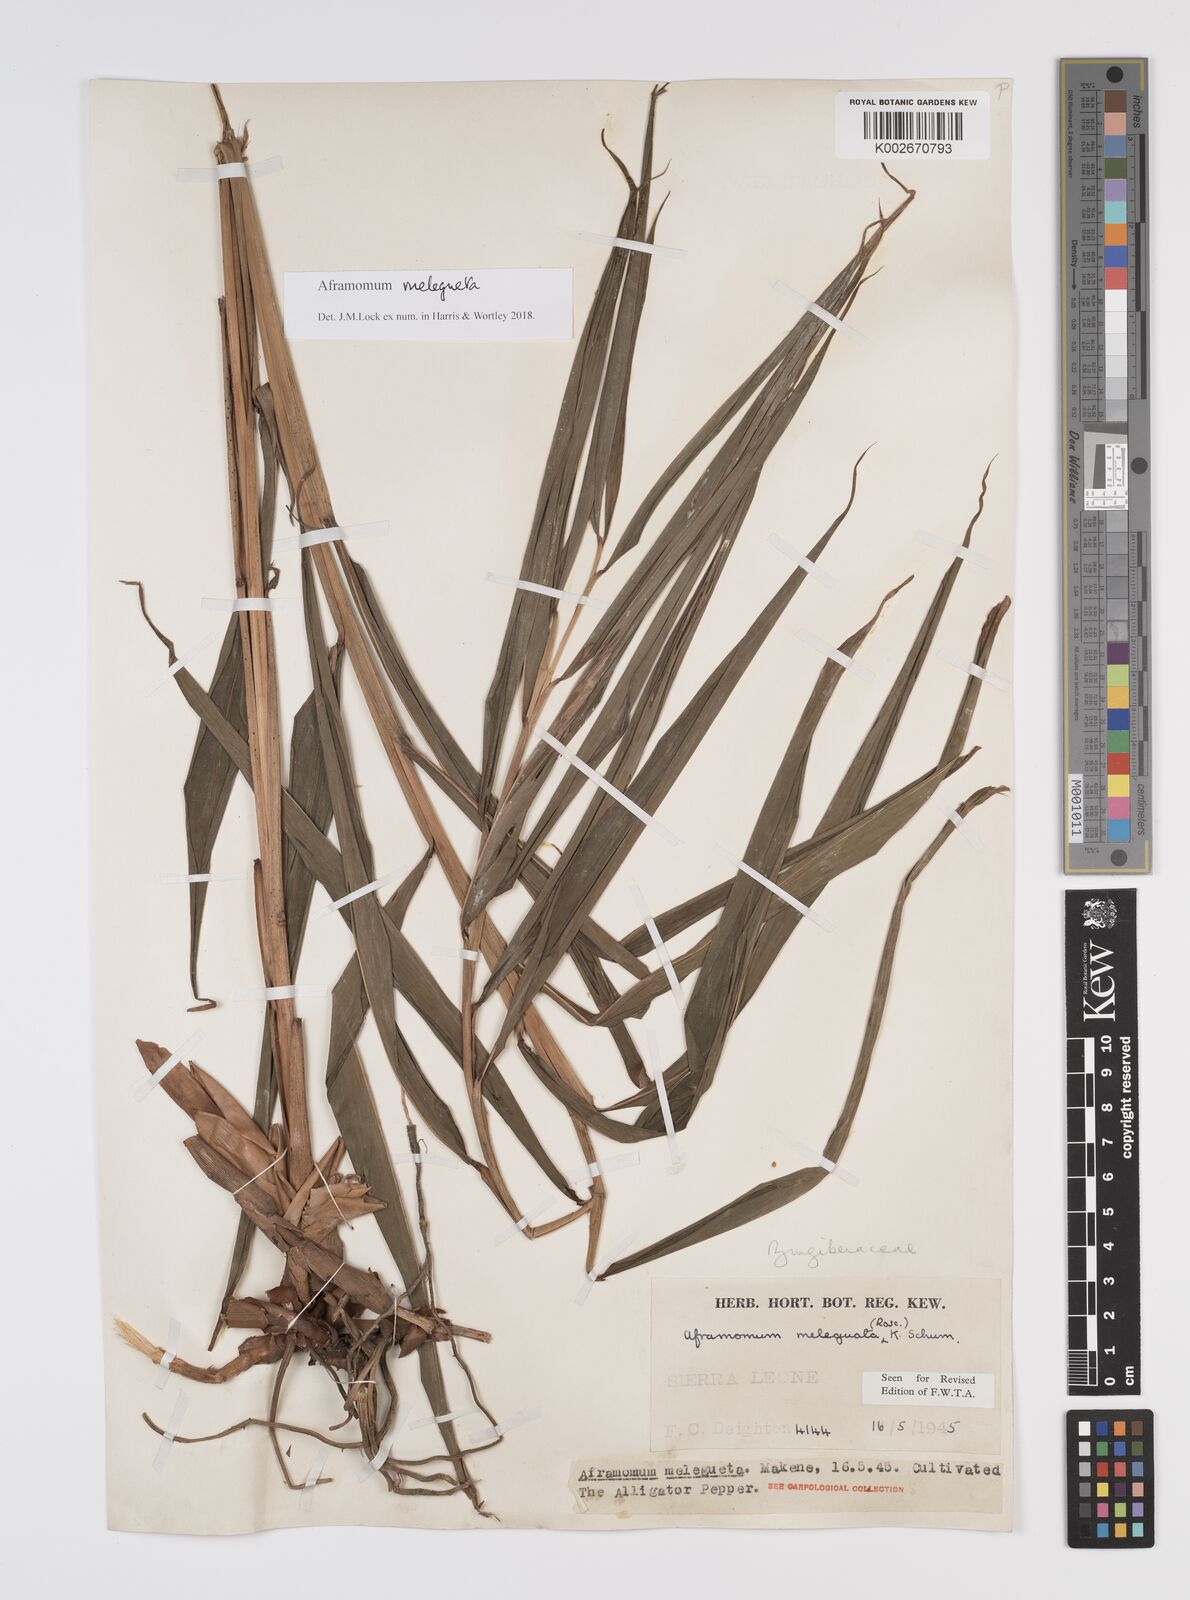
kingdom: Plantae
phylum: Tracheophyta
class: Liliopsida
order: Zingiberales
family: Zingiberaceae
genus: Aframomum
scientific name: Aframomum melegueta
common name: Grains of paradise
